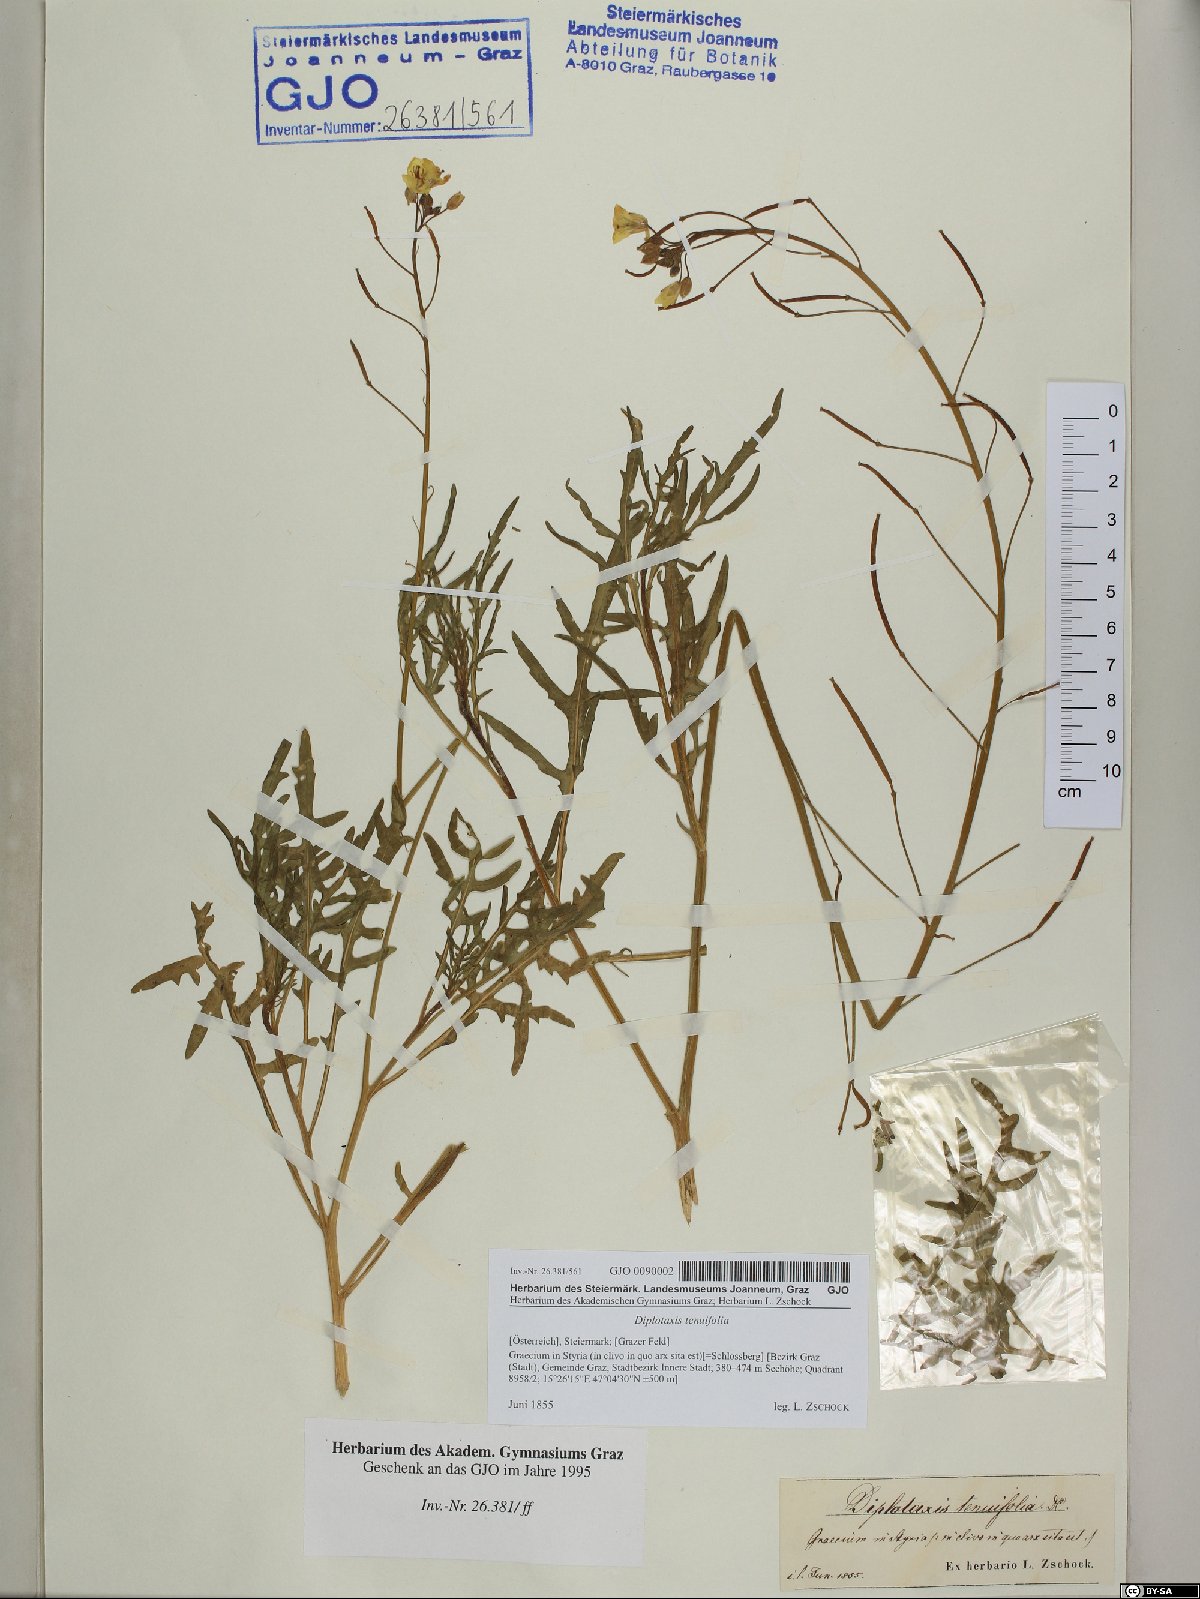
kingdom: Plantae
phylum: Tracheophyta
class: Magnoliopsida
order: Brassicales
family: Brassicaceae
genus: Diplotaxis
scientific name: Diplotaxis tenuifolia
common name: Perennial wall-rocket
